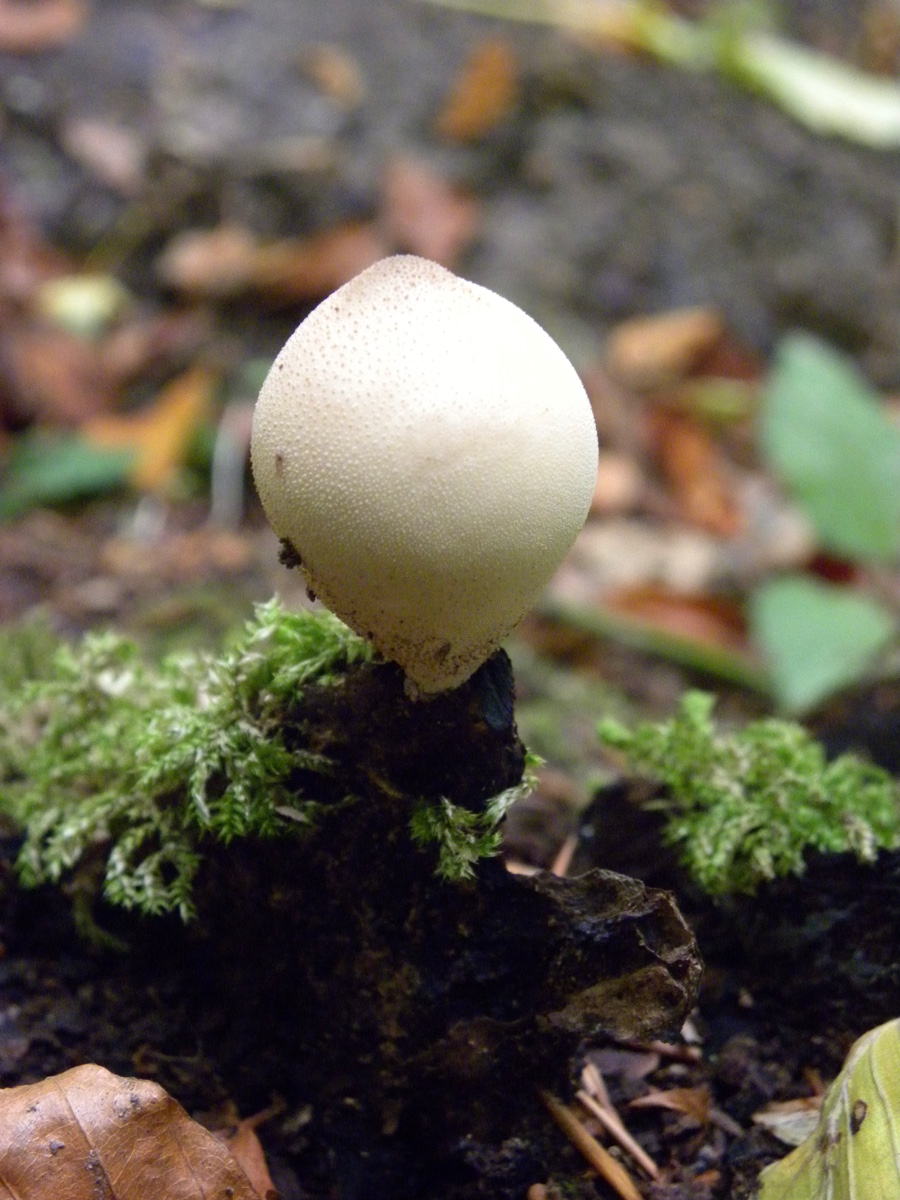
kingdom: Fungi
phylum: Basidiomycota
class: Agaricomycetes
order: Agaricales
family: Lycoperdaceae
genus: Apioperdon
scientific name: Apioperdon pyriforme
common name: pære-støvbold
